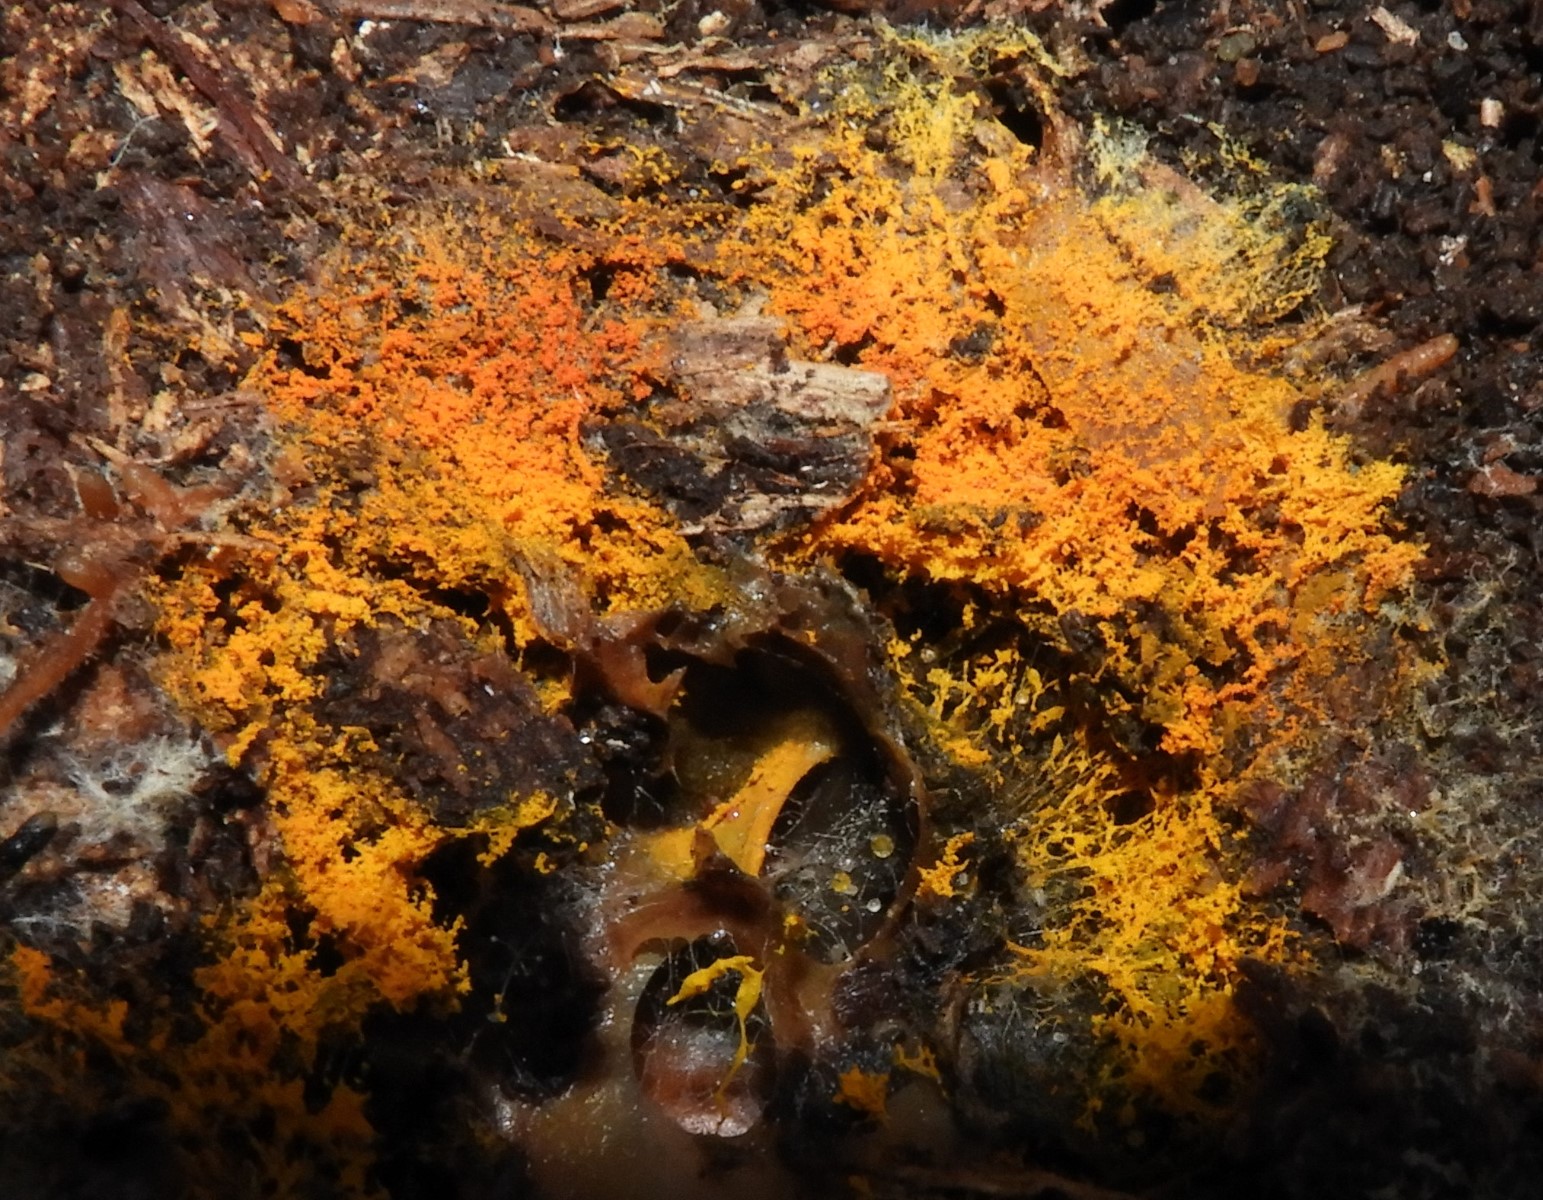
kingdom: Fungi
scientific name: Fungi
